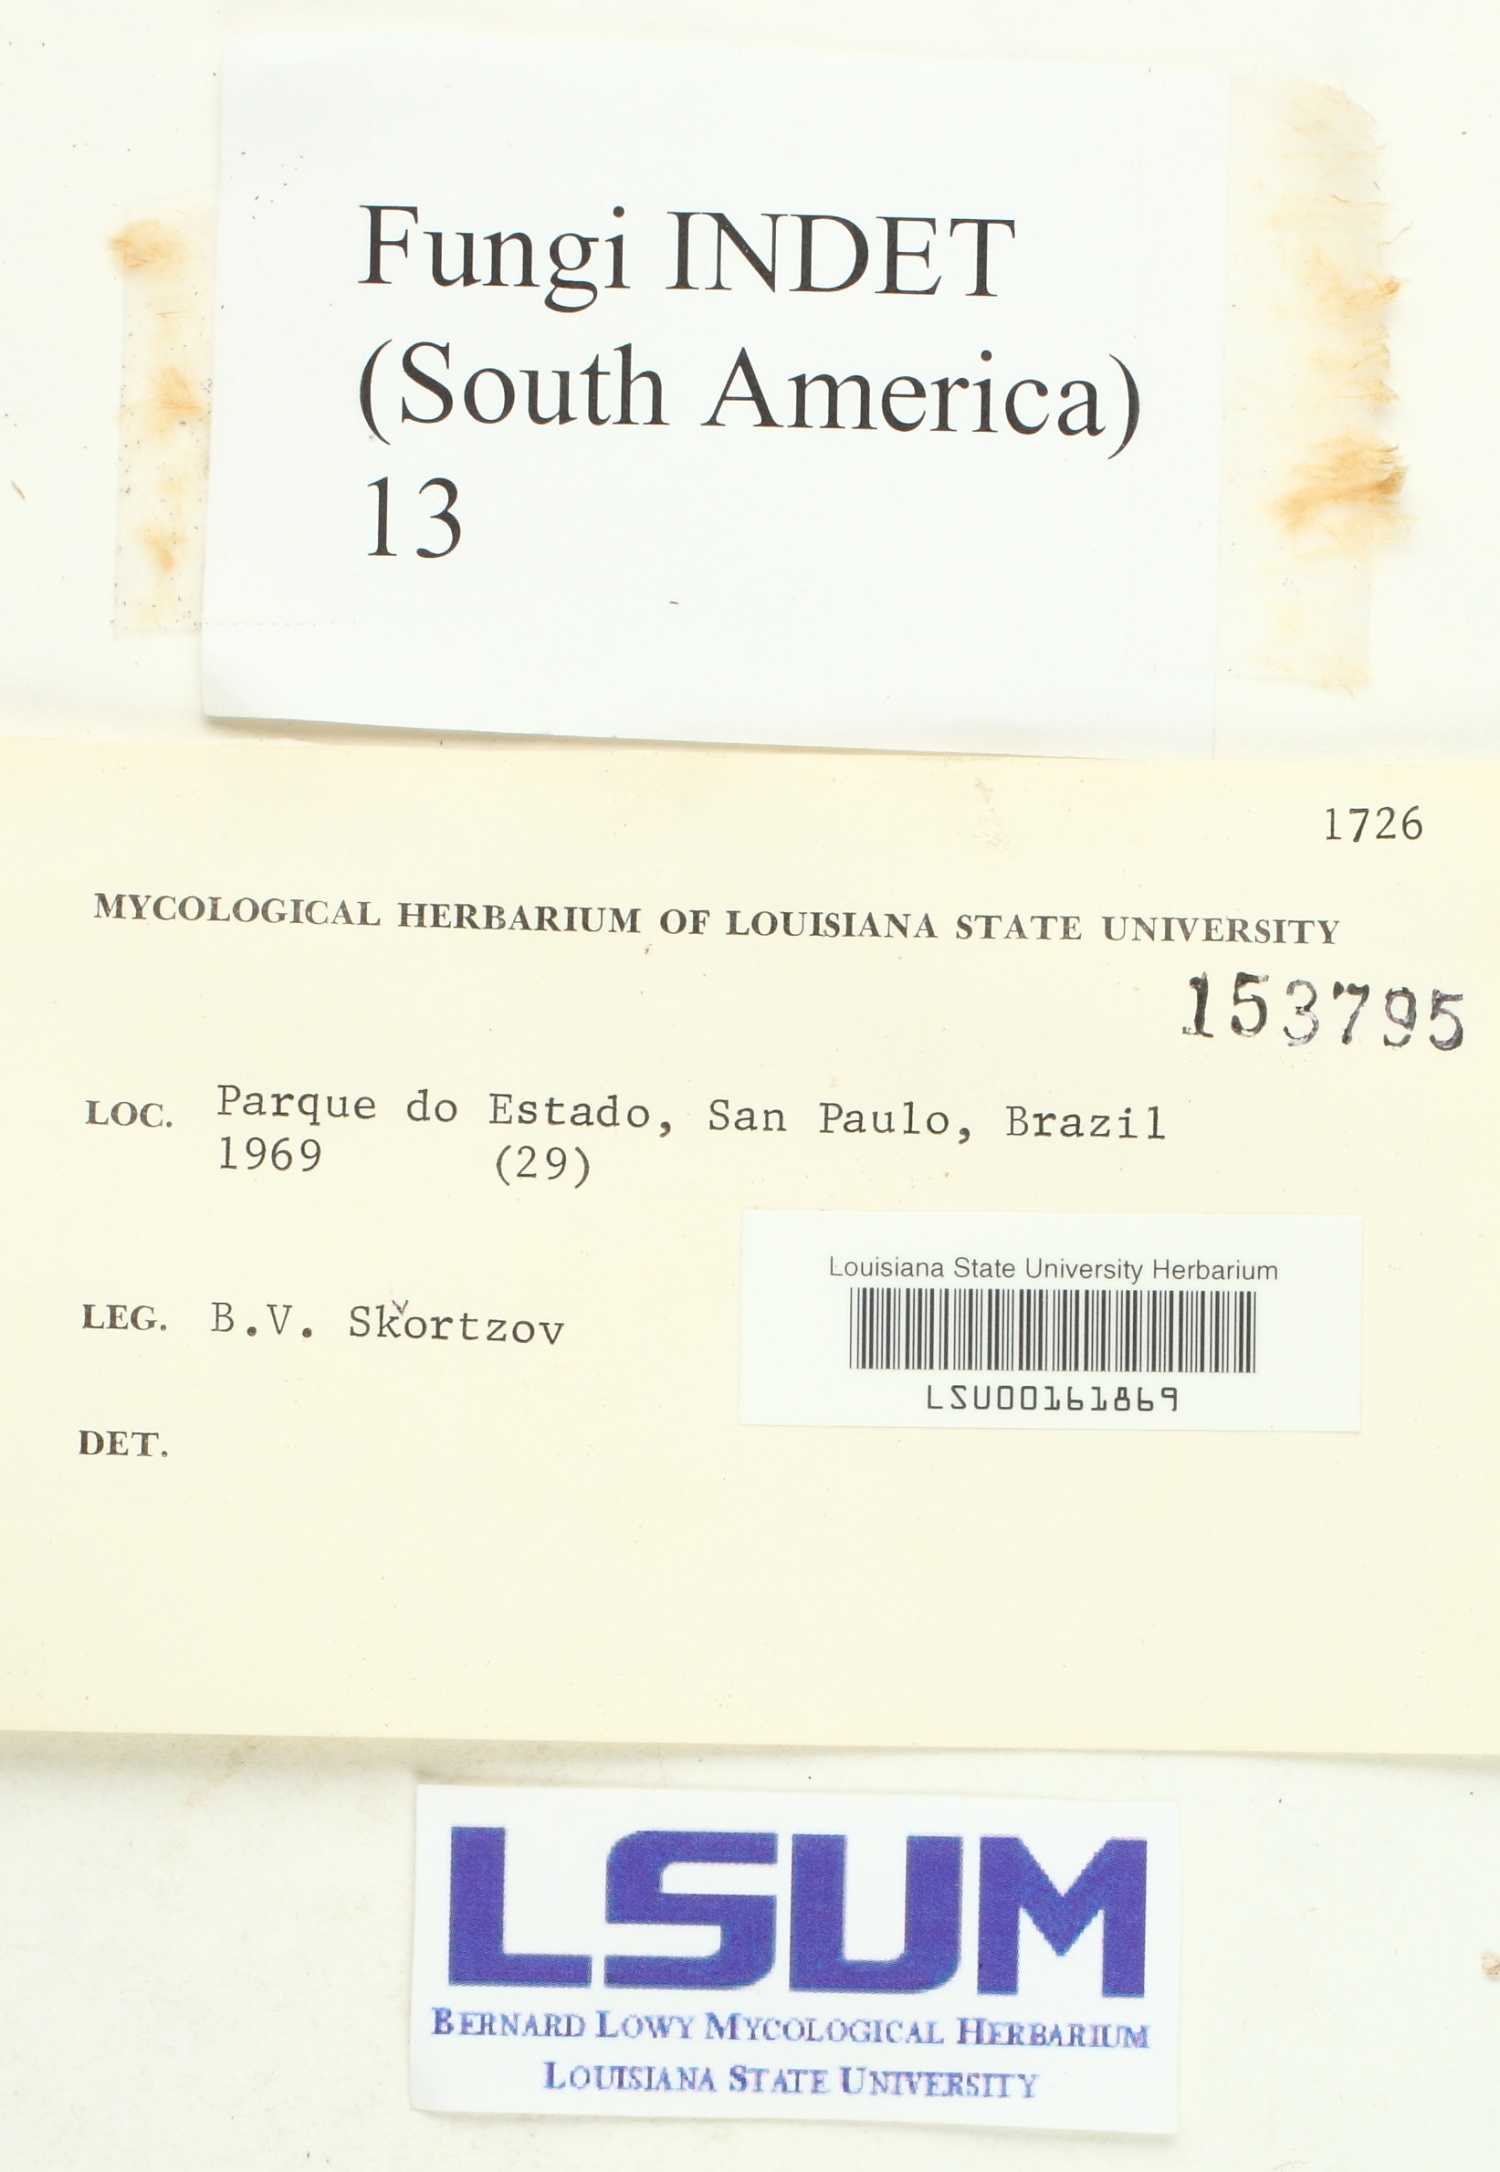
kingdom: Fungi
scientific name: Fungi
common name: Fungi
